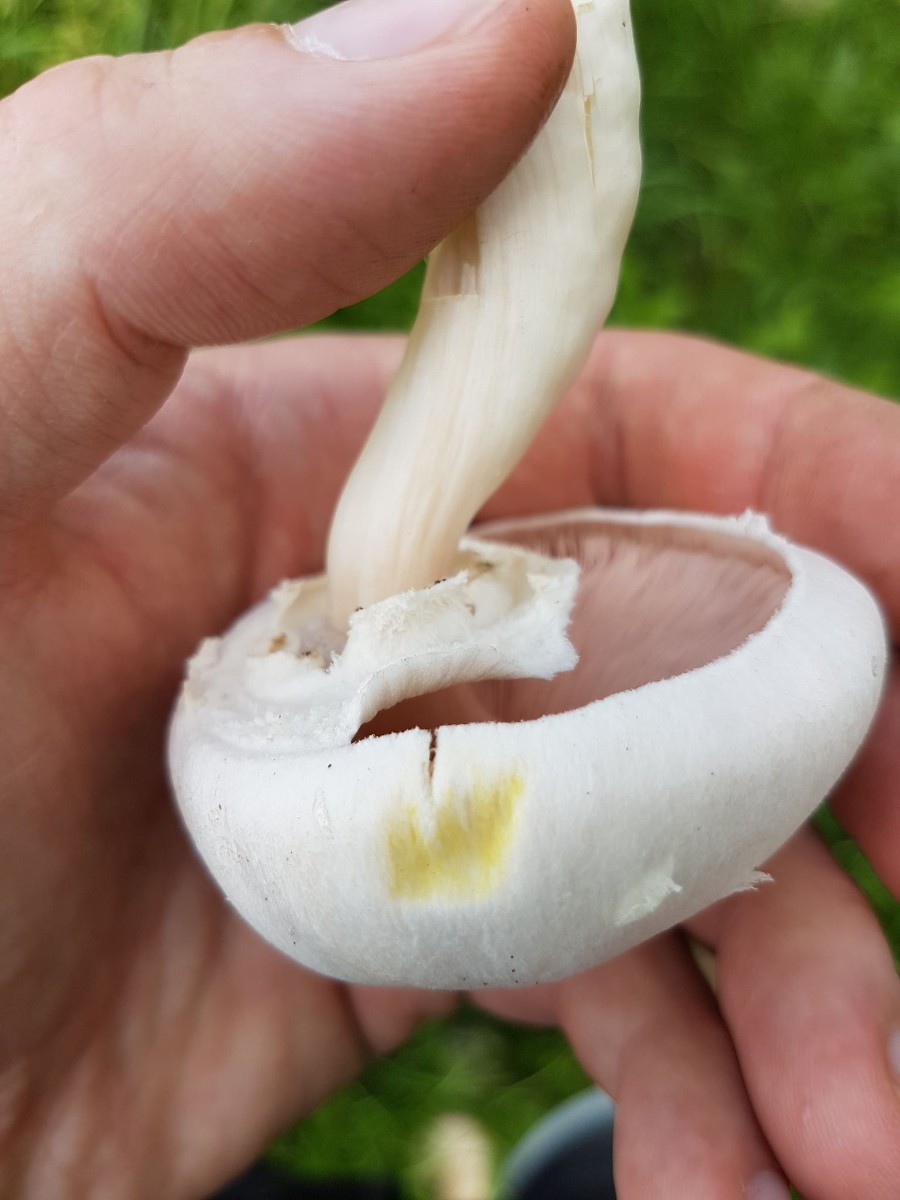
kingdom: Fungi
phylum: Basidiomycota
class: Agaricomycetes
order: Agaricales
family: Agaricaceae
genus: Agaricus
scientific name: Agaricus xanthodermus
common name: karbol-champignon
